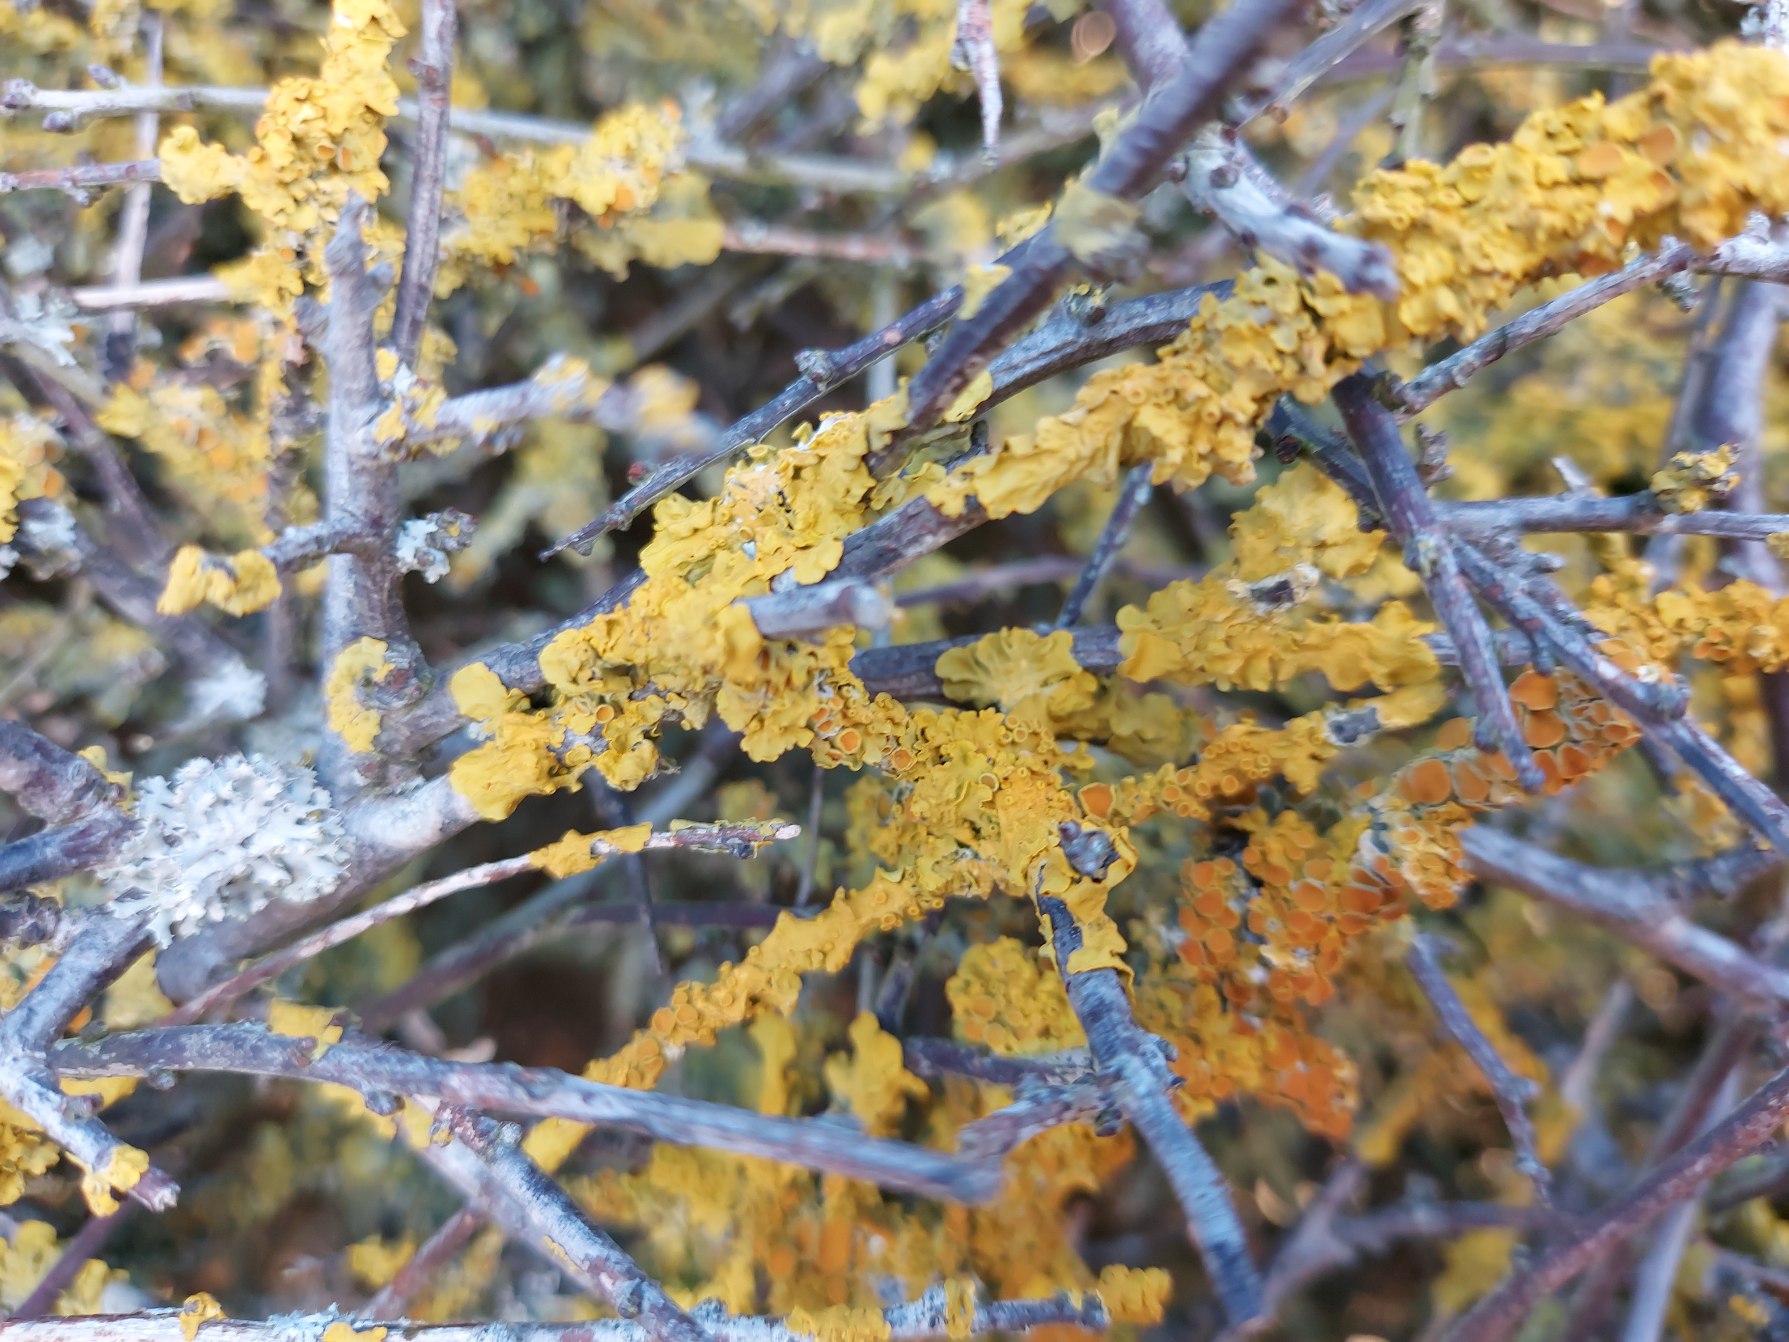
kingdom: Fungi
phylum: Ascomycota
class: Lecanoromycetes
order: Teloschistales
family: Teloschistaceae
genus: Xanthoria
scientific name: Xanthoria parietina
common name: Almindelig væggelav
